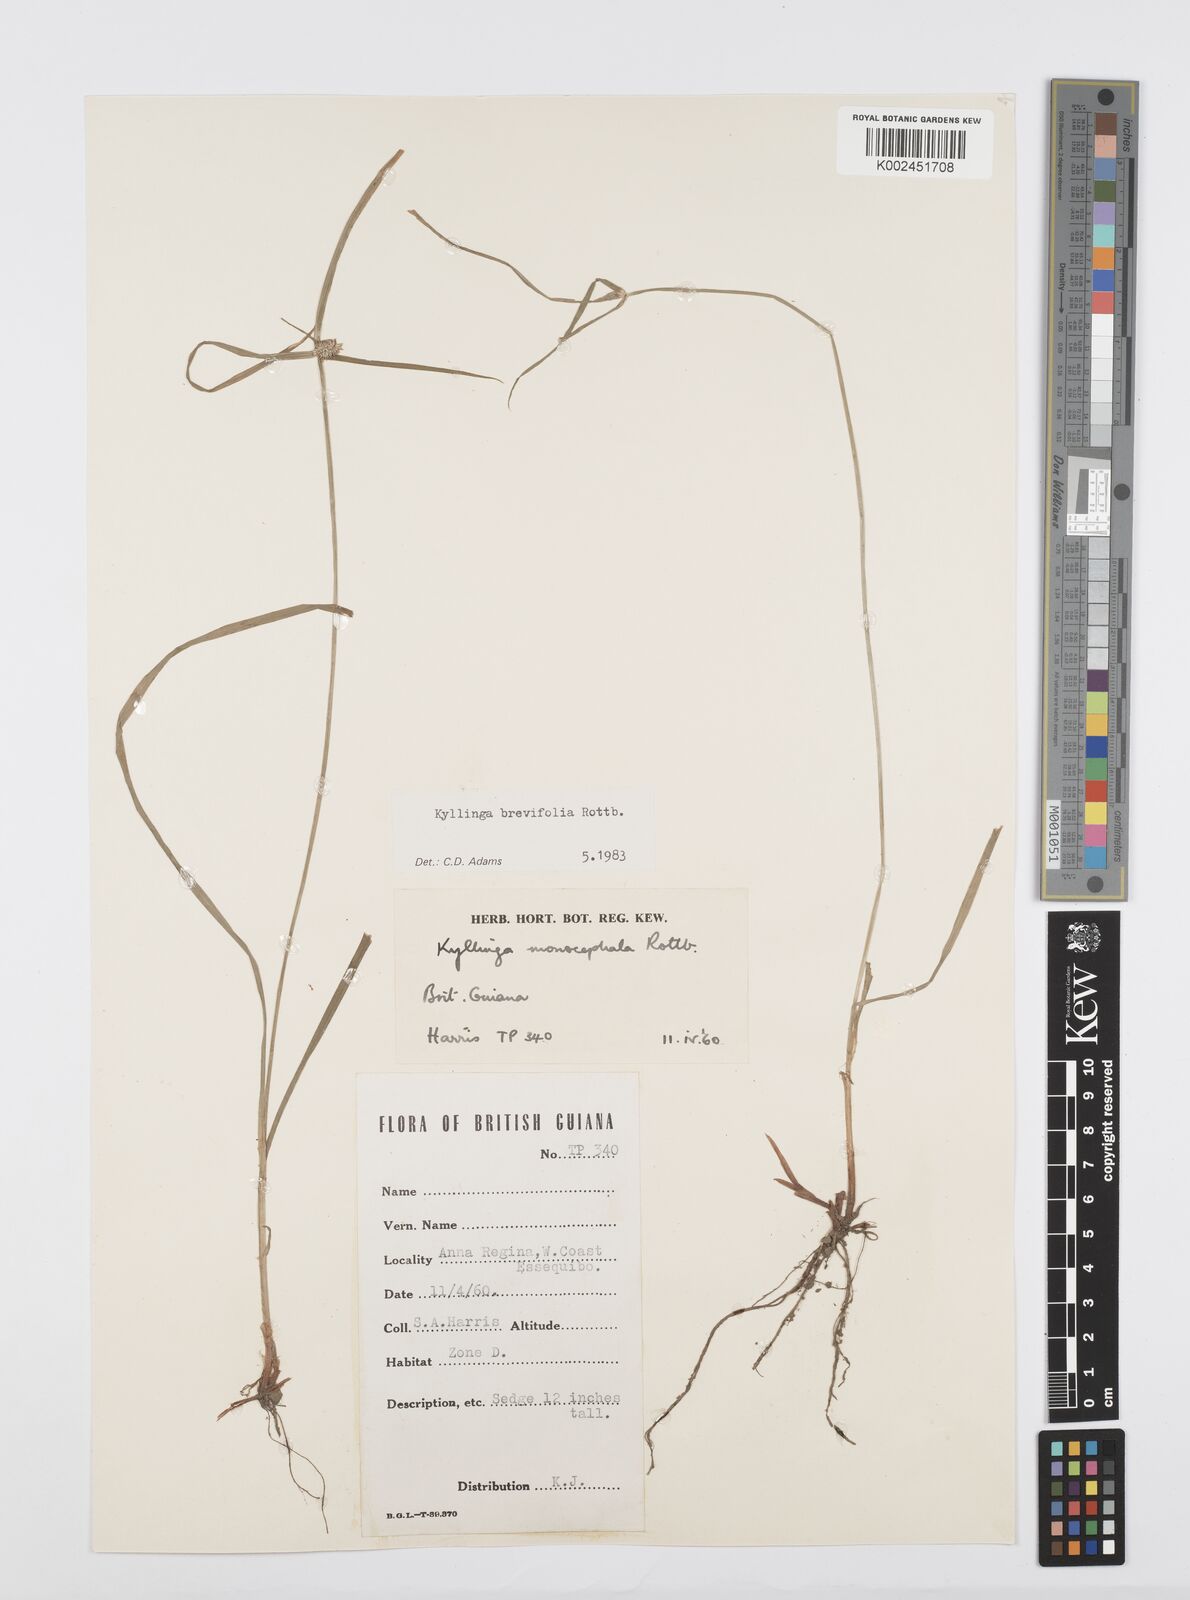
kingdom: Plantae
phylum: Tracheophyta
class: Liliopsida
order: Poales
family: Cyperaceae
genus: Cyperus
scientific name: Cyperus brevifolius
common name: Globe kyllinga
